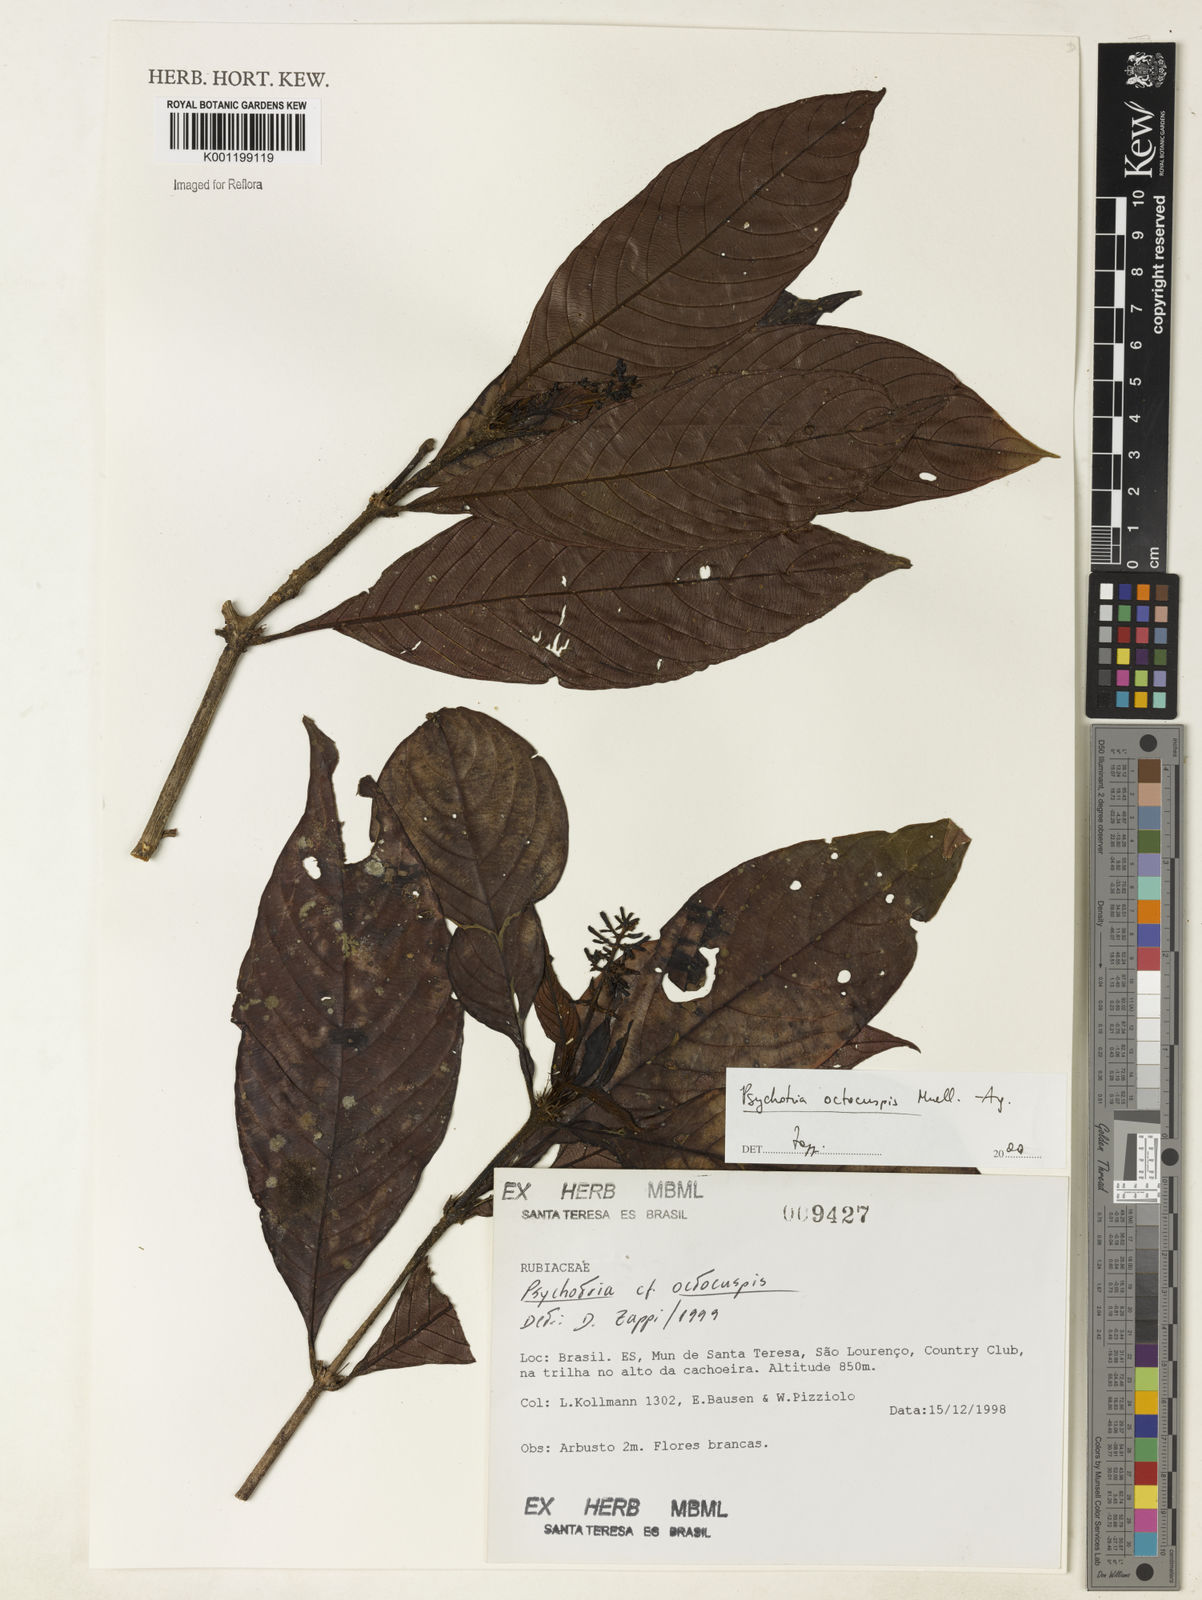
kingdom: Plantae
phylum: Tracheophyta
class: Magnoliopsida
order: Gentianales
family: Rubiaceae
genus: Psychotria
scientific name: Psychotria
